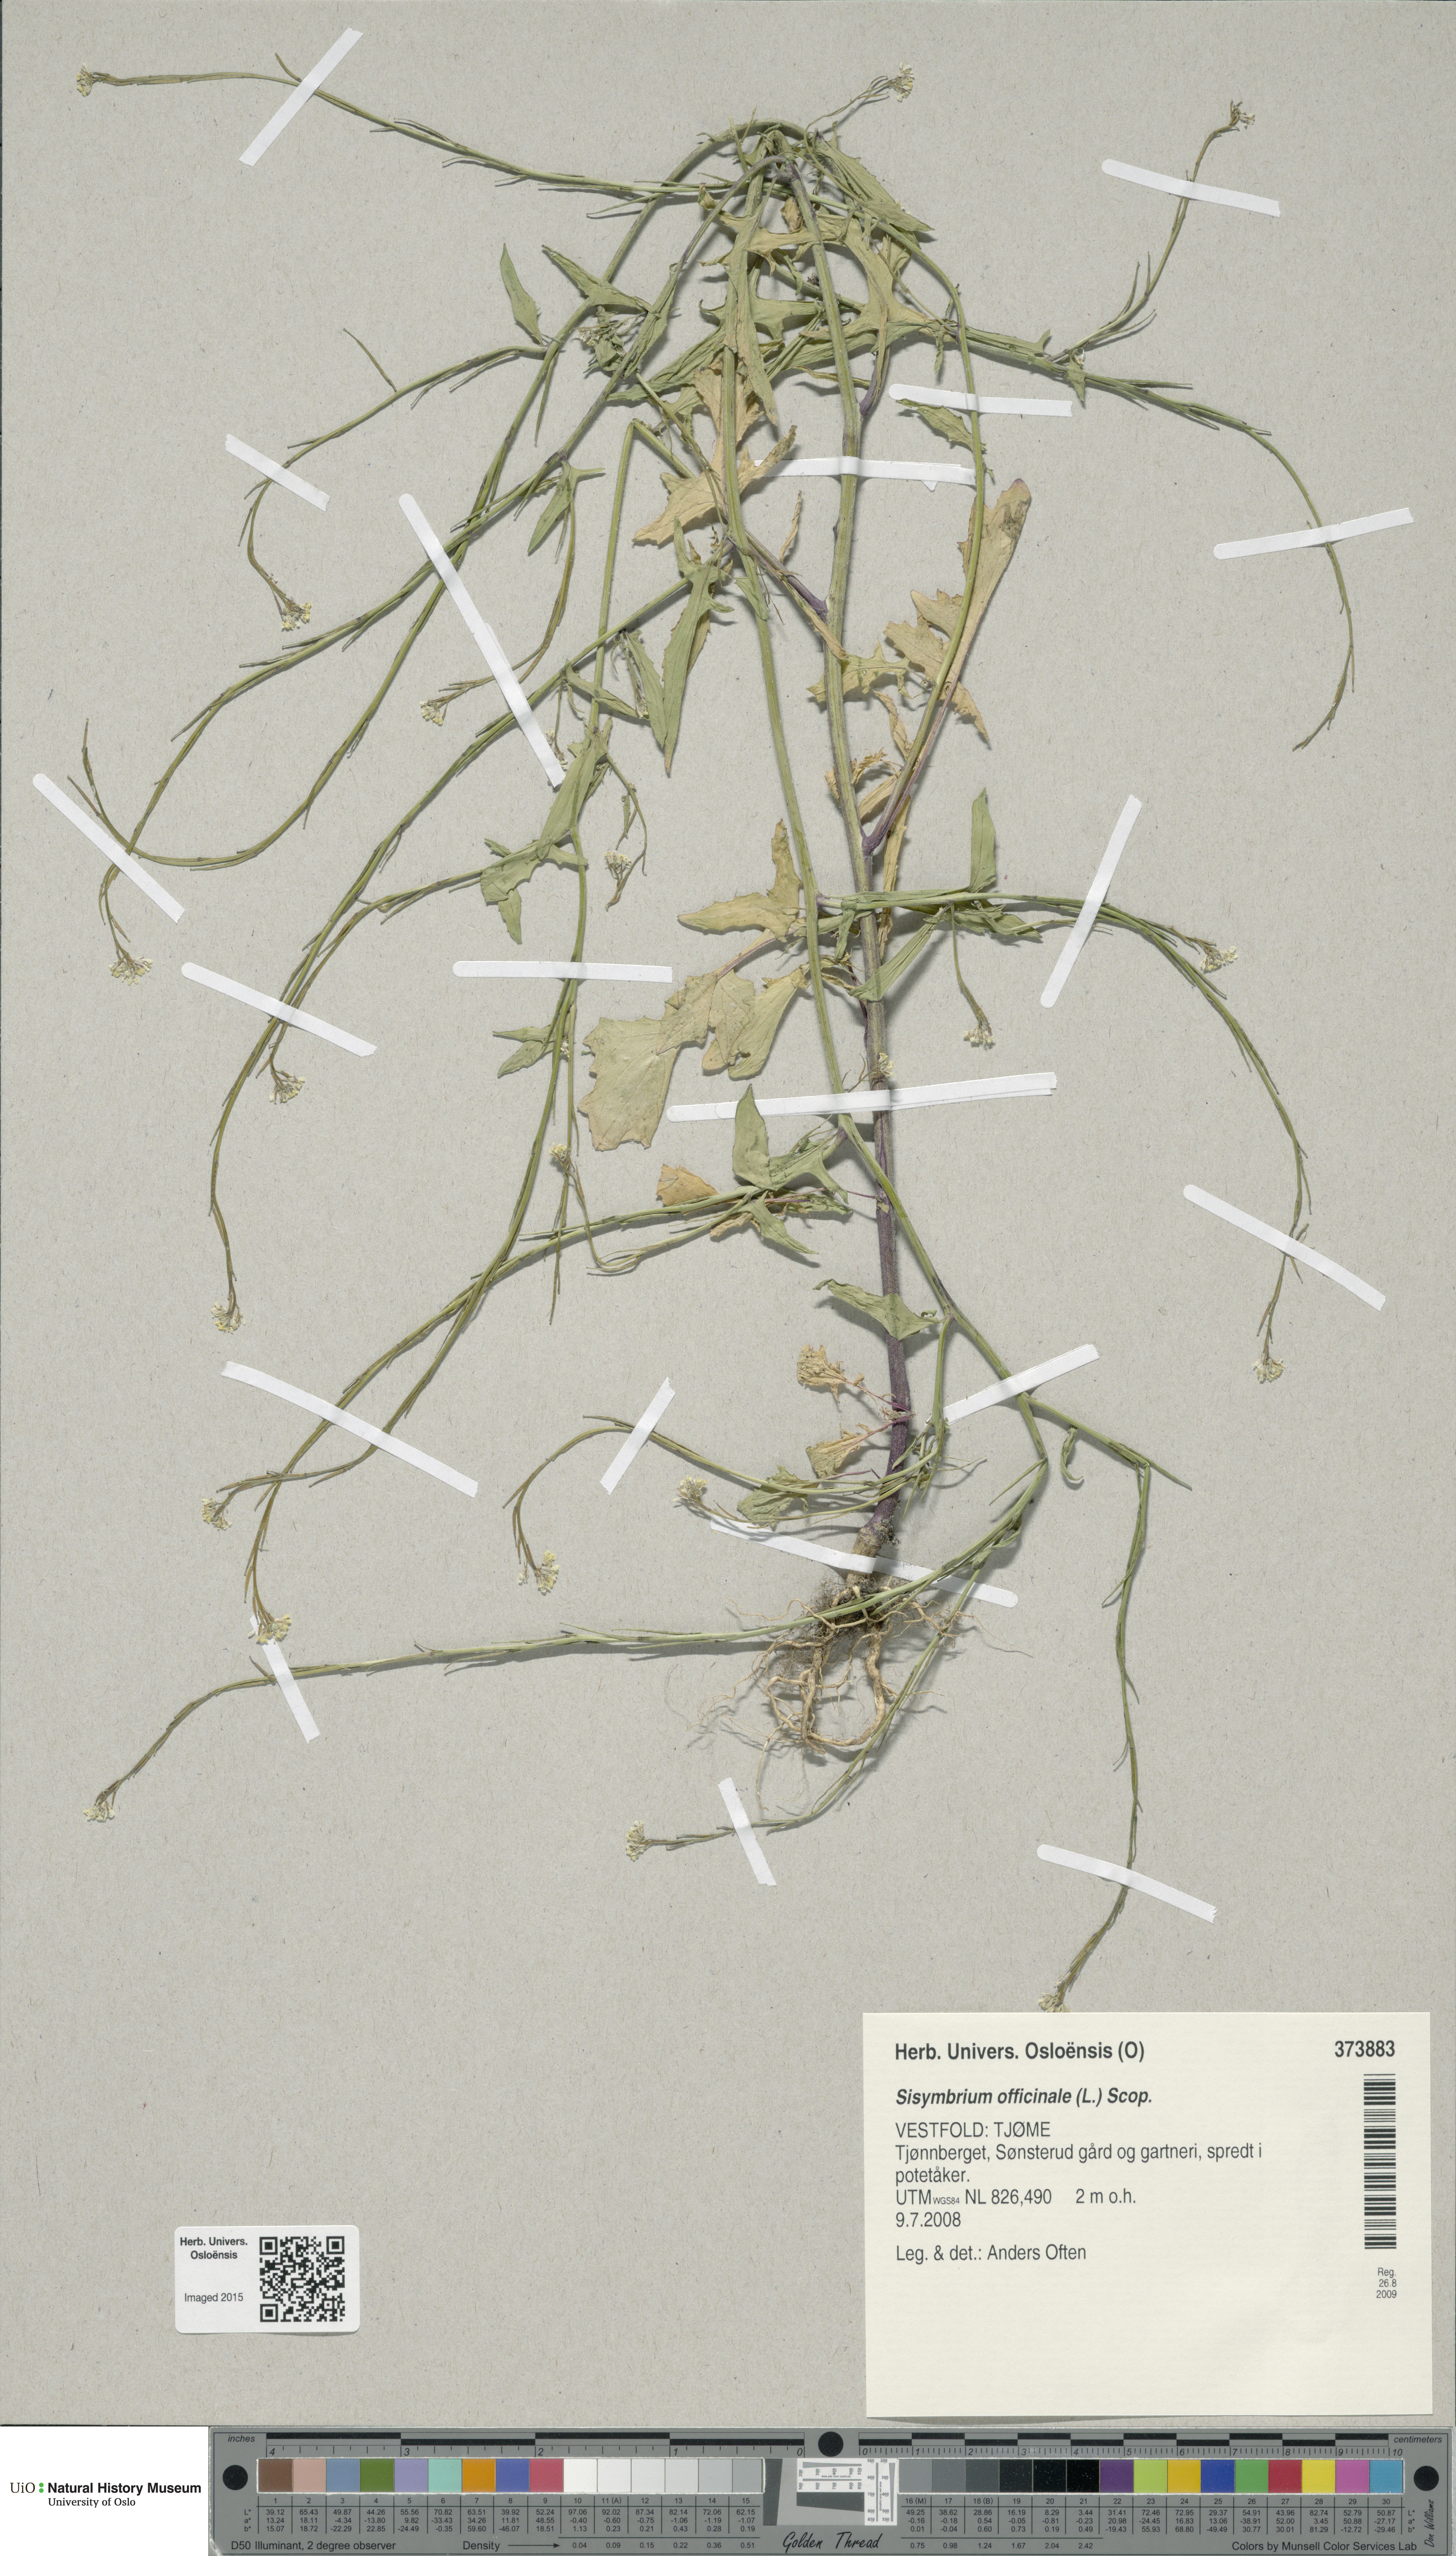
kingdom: Plantae
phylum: Tracheophyta
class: Magnoliopsida
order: Brassicales
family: Brassicaceae
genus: Sisymbrium
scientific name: Sisymbrium officinale
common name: Hedge mustard
